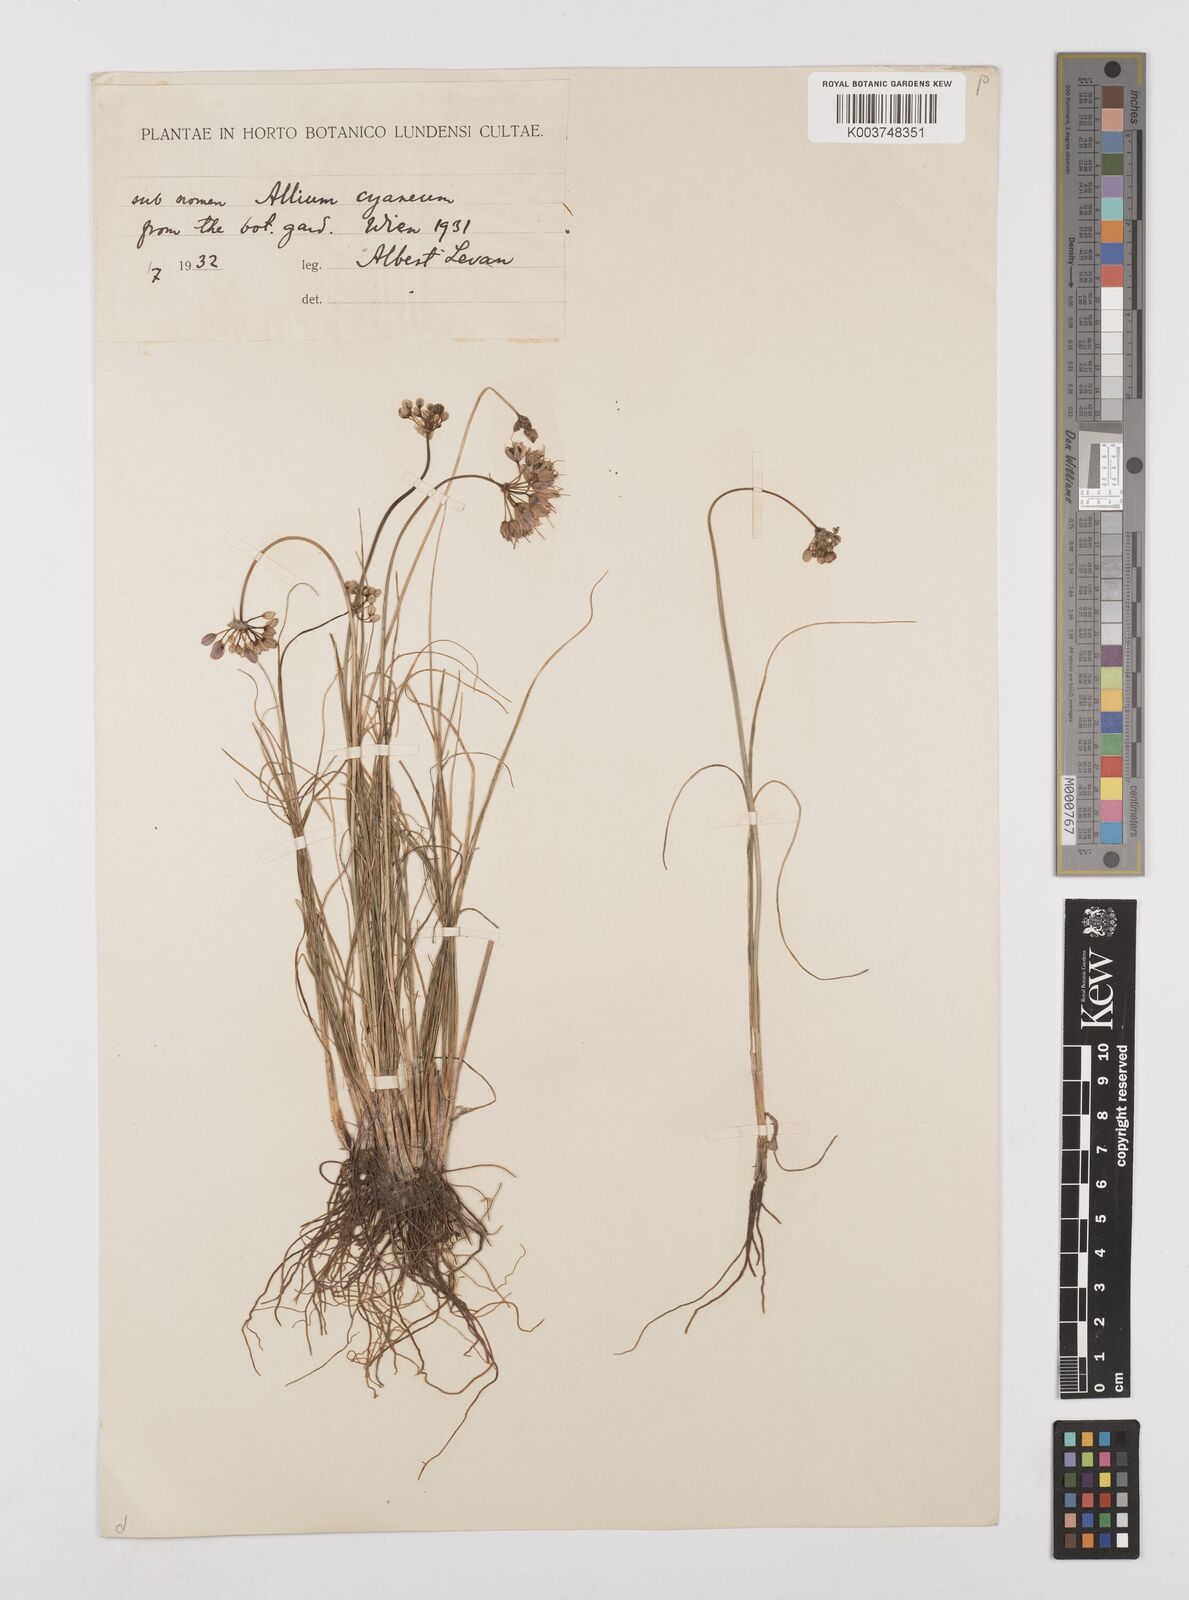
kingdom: Plantae
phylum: Tracheophyta
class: Liliopsida
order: Asparagales
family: Amaryllidaceae
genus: Allium
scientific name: Allium cyaneum
